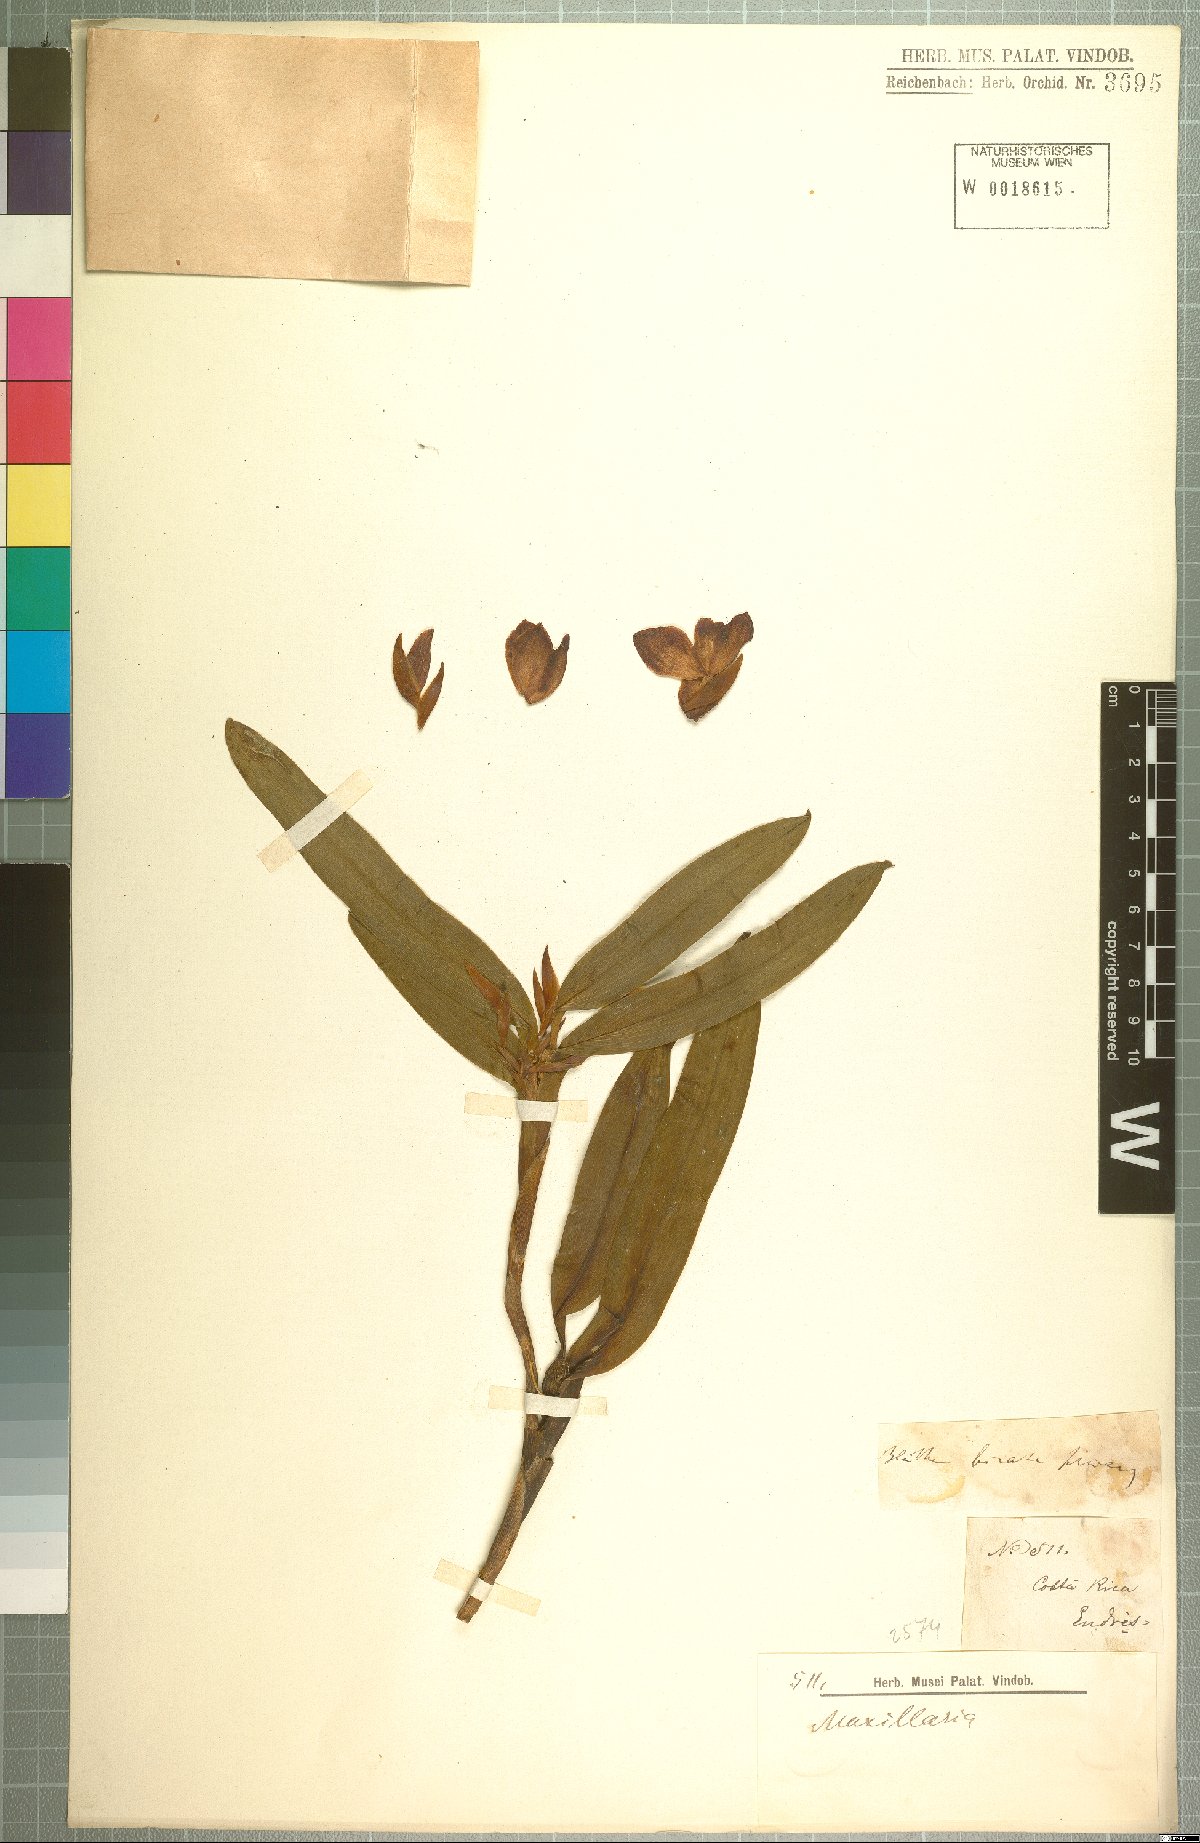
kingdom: Plantae
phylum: Tracheophyta
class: Liliopsida
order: Asparagales
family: Orchidaceae
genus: Maxillaria
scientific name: Maxillaria
